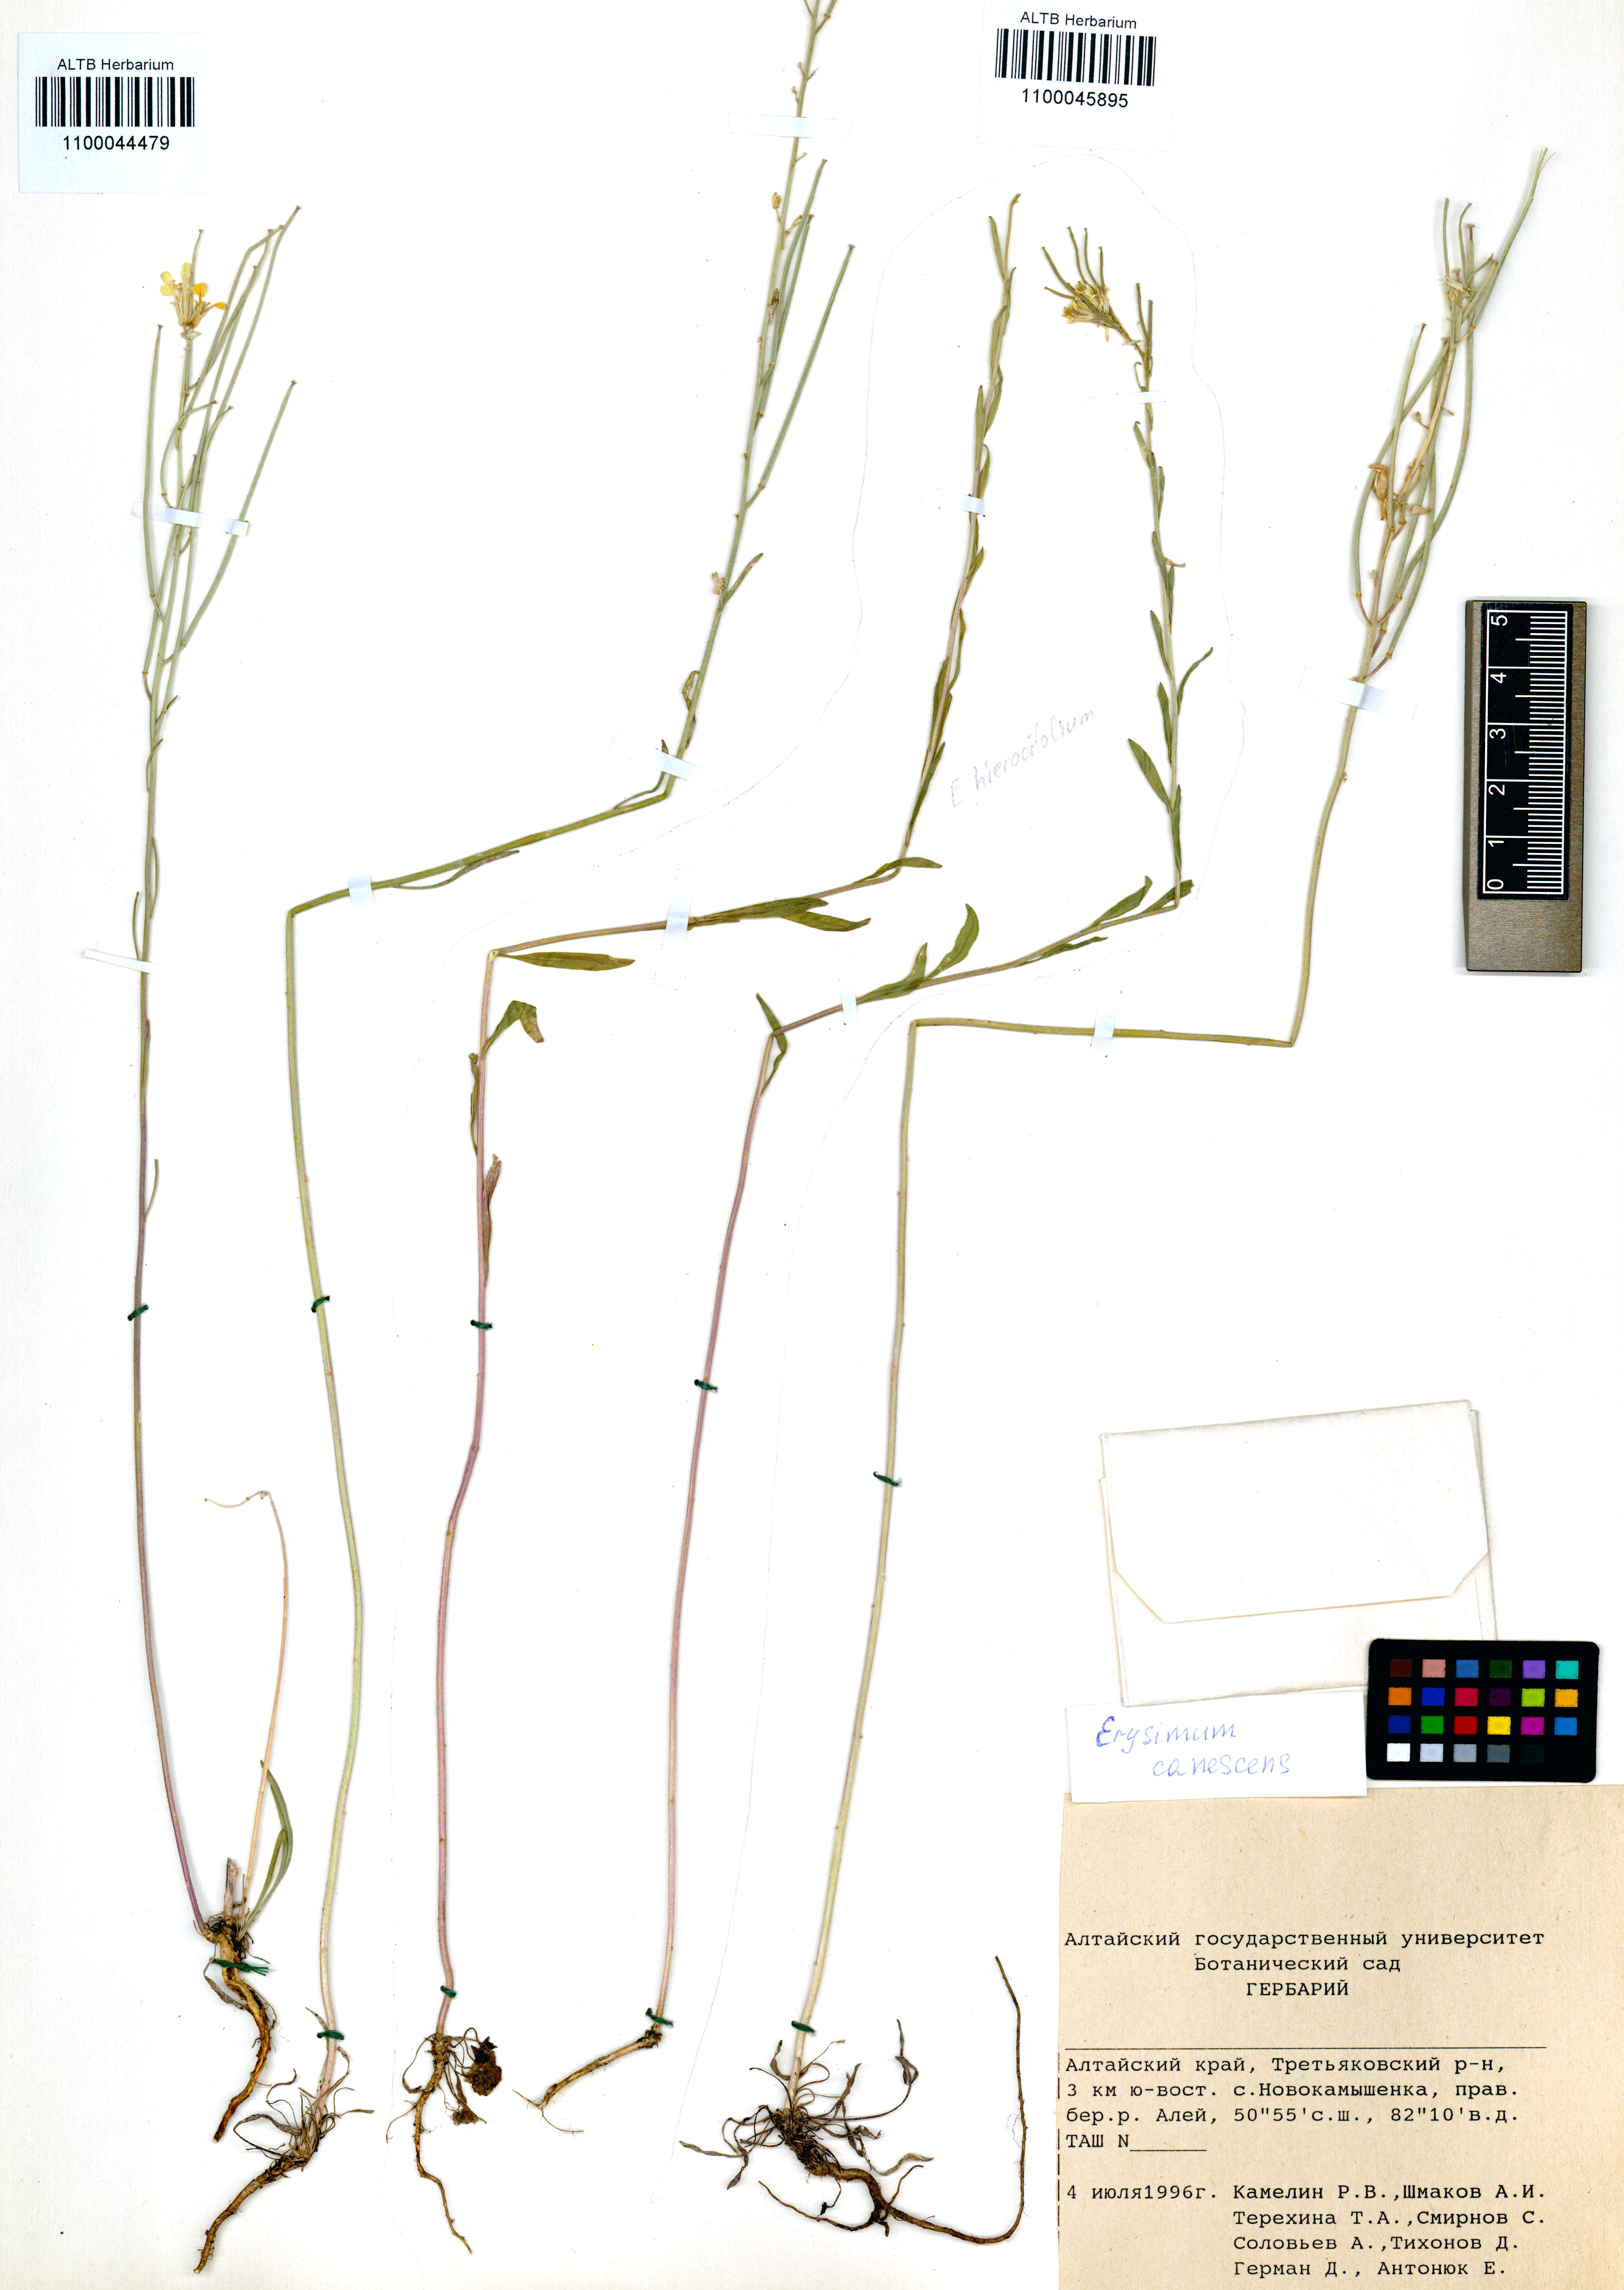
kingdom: Plantae
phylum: Tracheophyta
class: Magnoliopsida
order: Brassicales
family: Brassicaceae
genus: Erysimum
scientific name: Erysimum canescens
